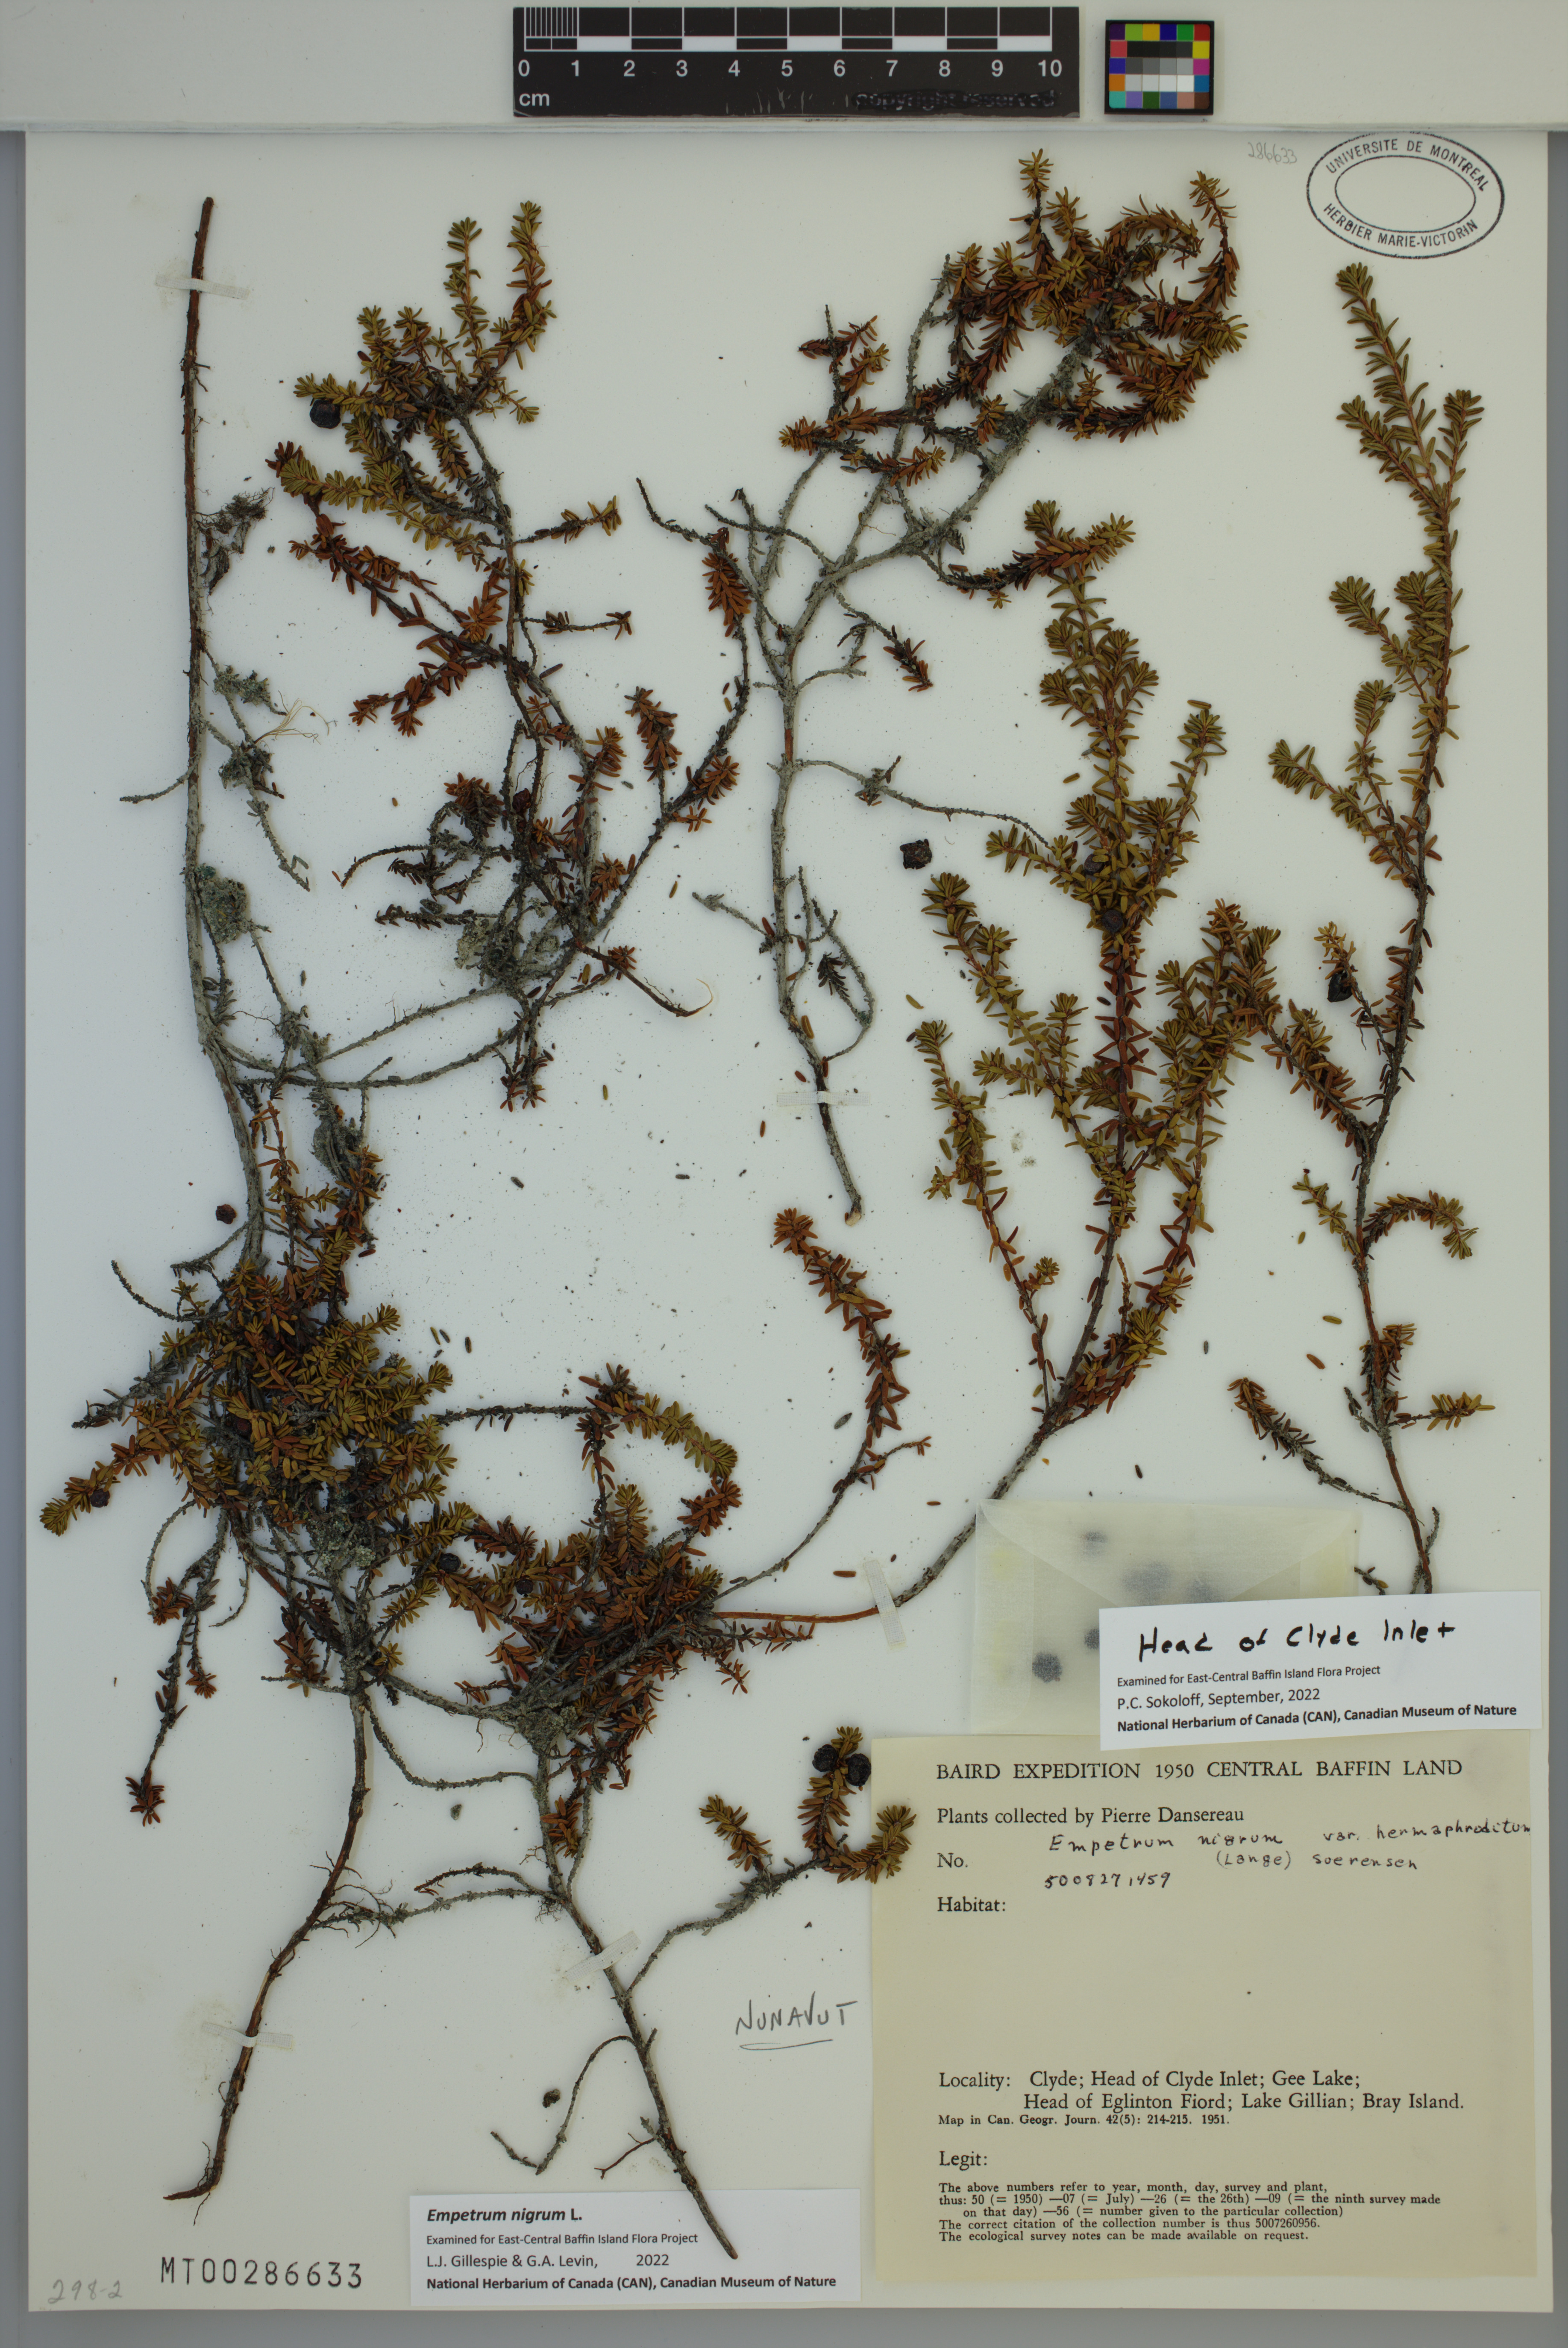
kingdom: Plantae
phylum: Tracheophyta
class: Magnoliopsida
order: Ericales
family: Ericaceae
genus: Empetrum
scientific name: Empetrum nigrum
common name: Black crowberry
